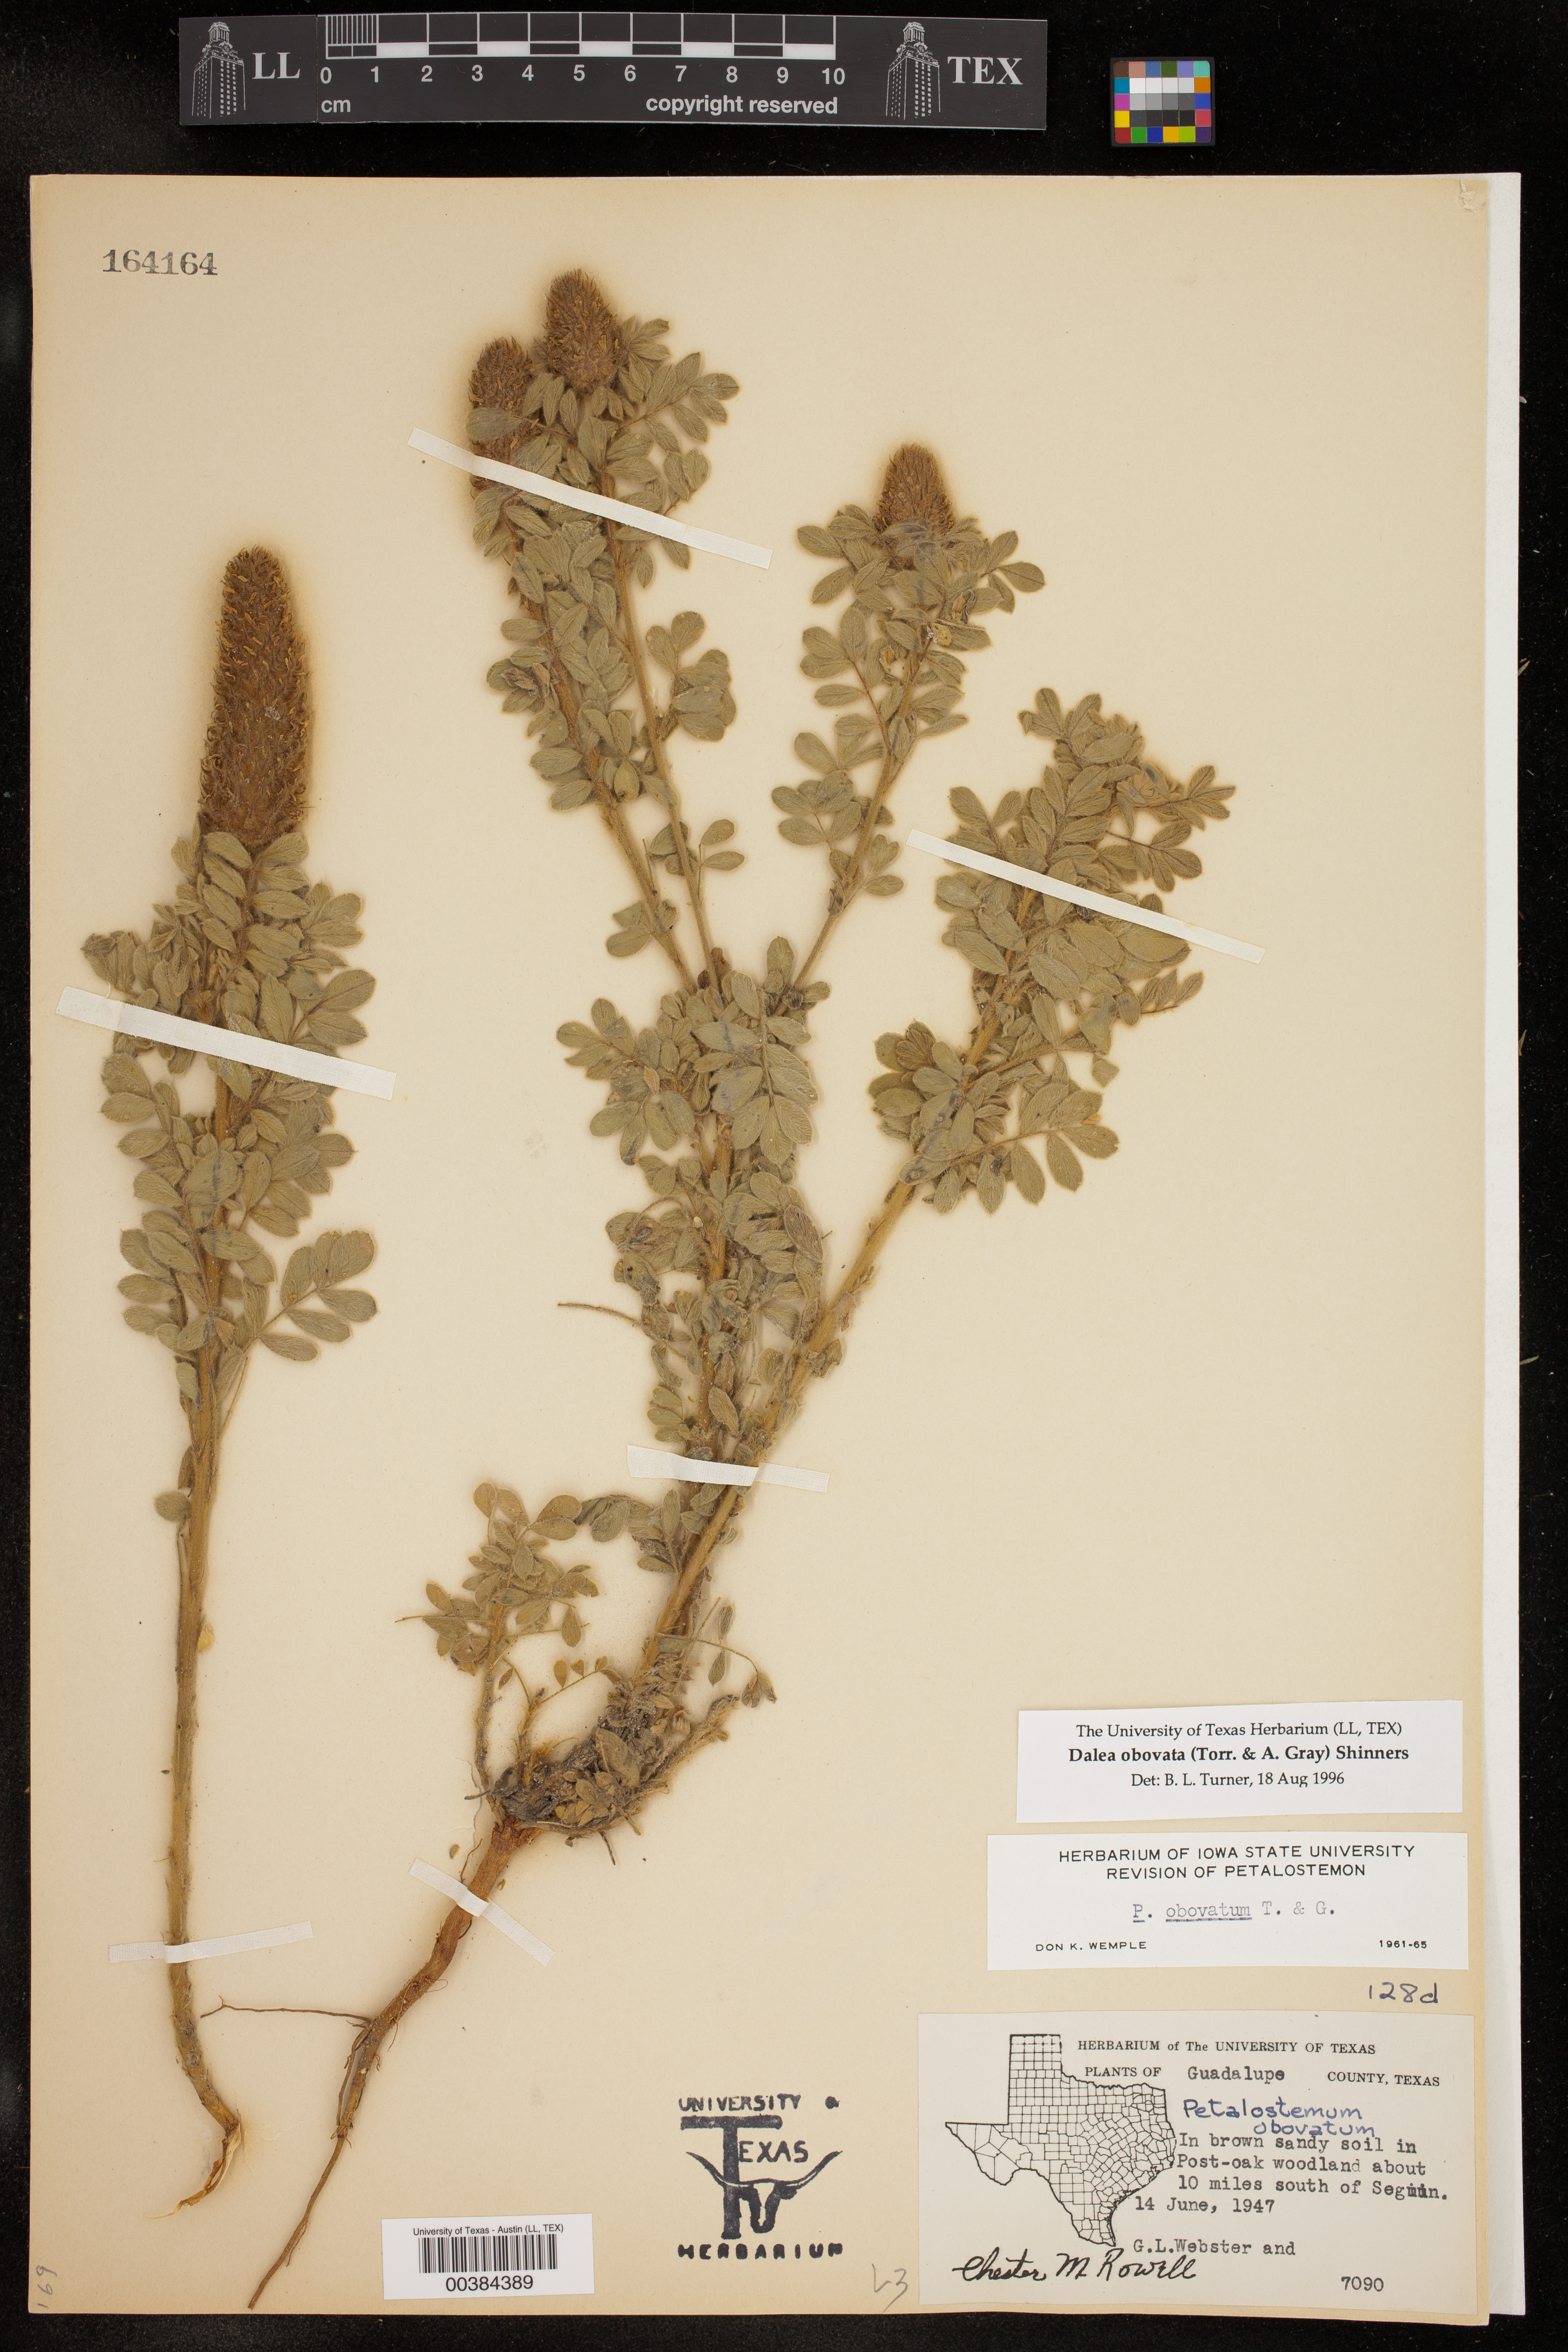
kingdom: Plantae
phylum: Tracheophyta
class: Magnoliopsida
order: Fabales
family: Fabaceae
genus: Dalea
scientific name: Dalea obovata
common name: Pussyfoot
